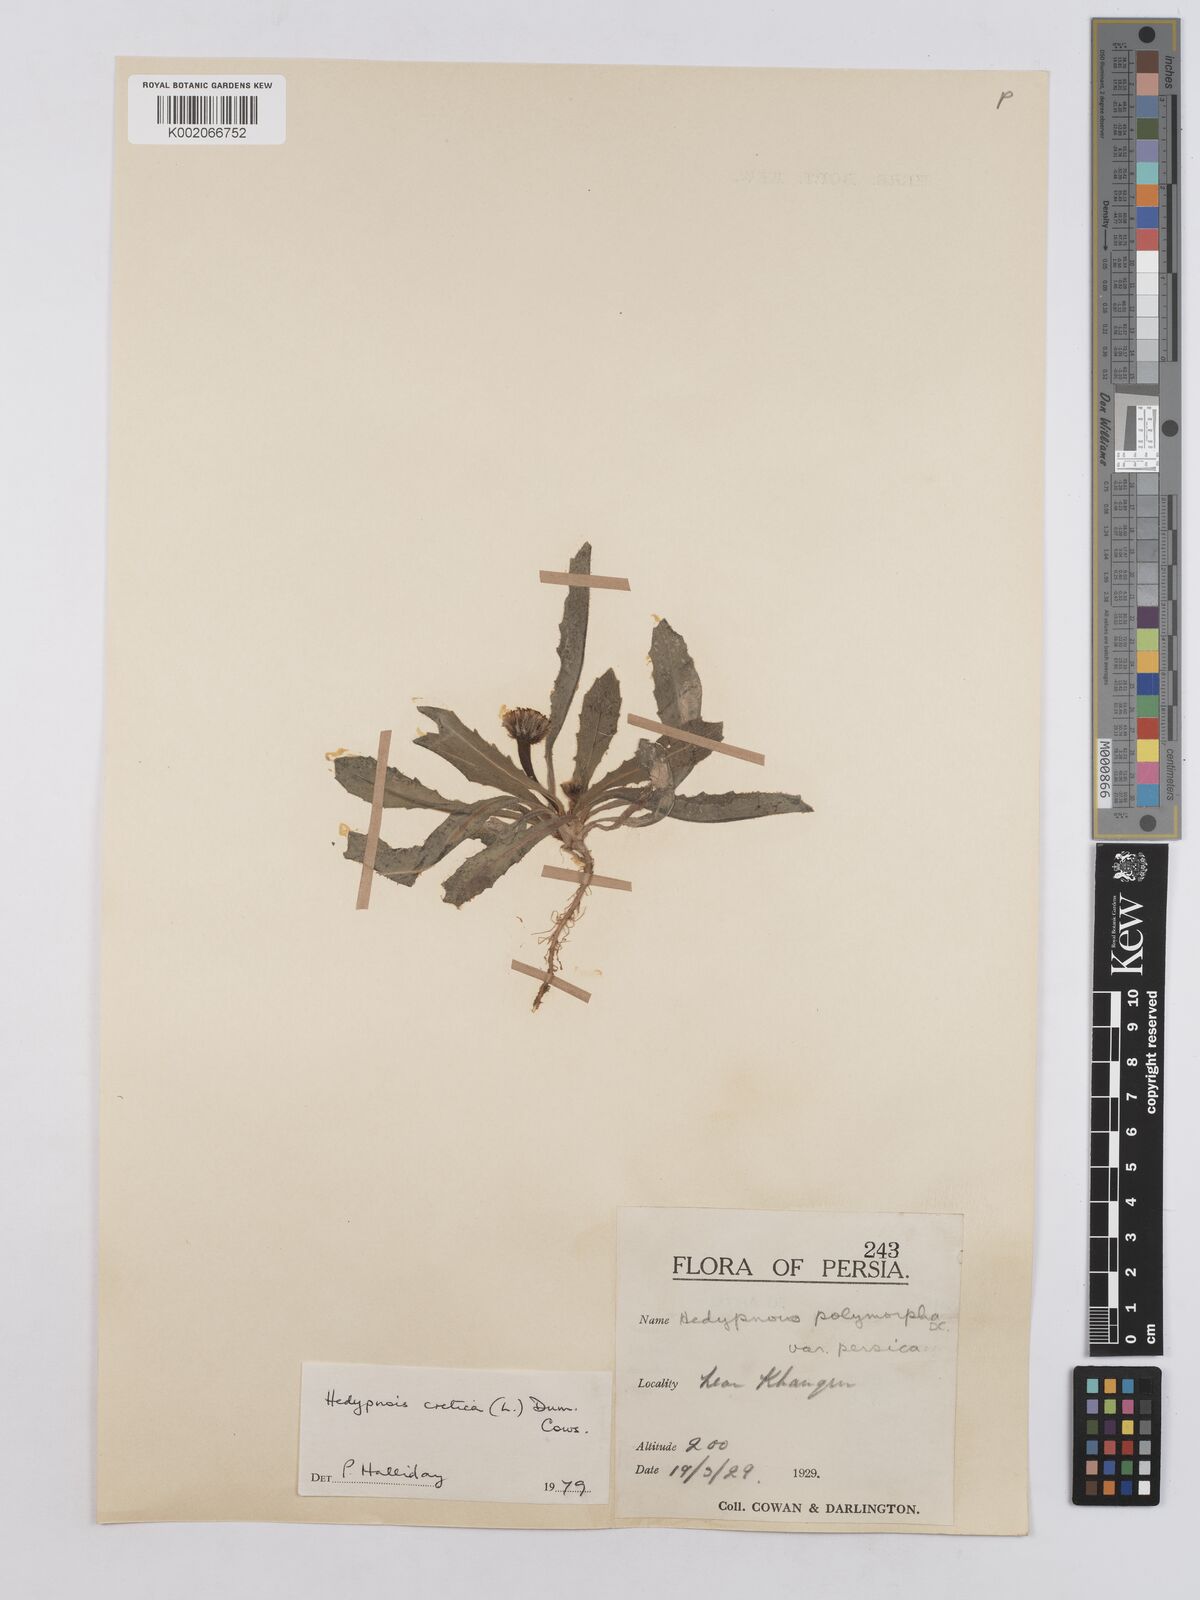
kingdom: Plantae
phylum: Tracheophyta
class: Magnoliopsida
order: Asterales
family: Asteraceae
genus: Hedypnois
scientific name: Hedypnois cretica
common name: Scaly hawkbit
